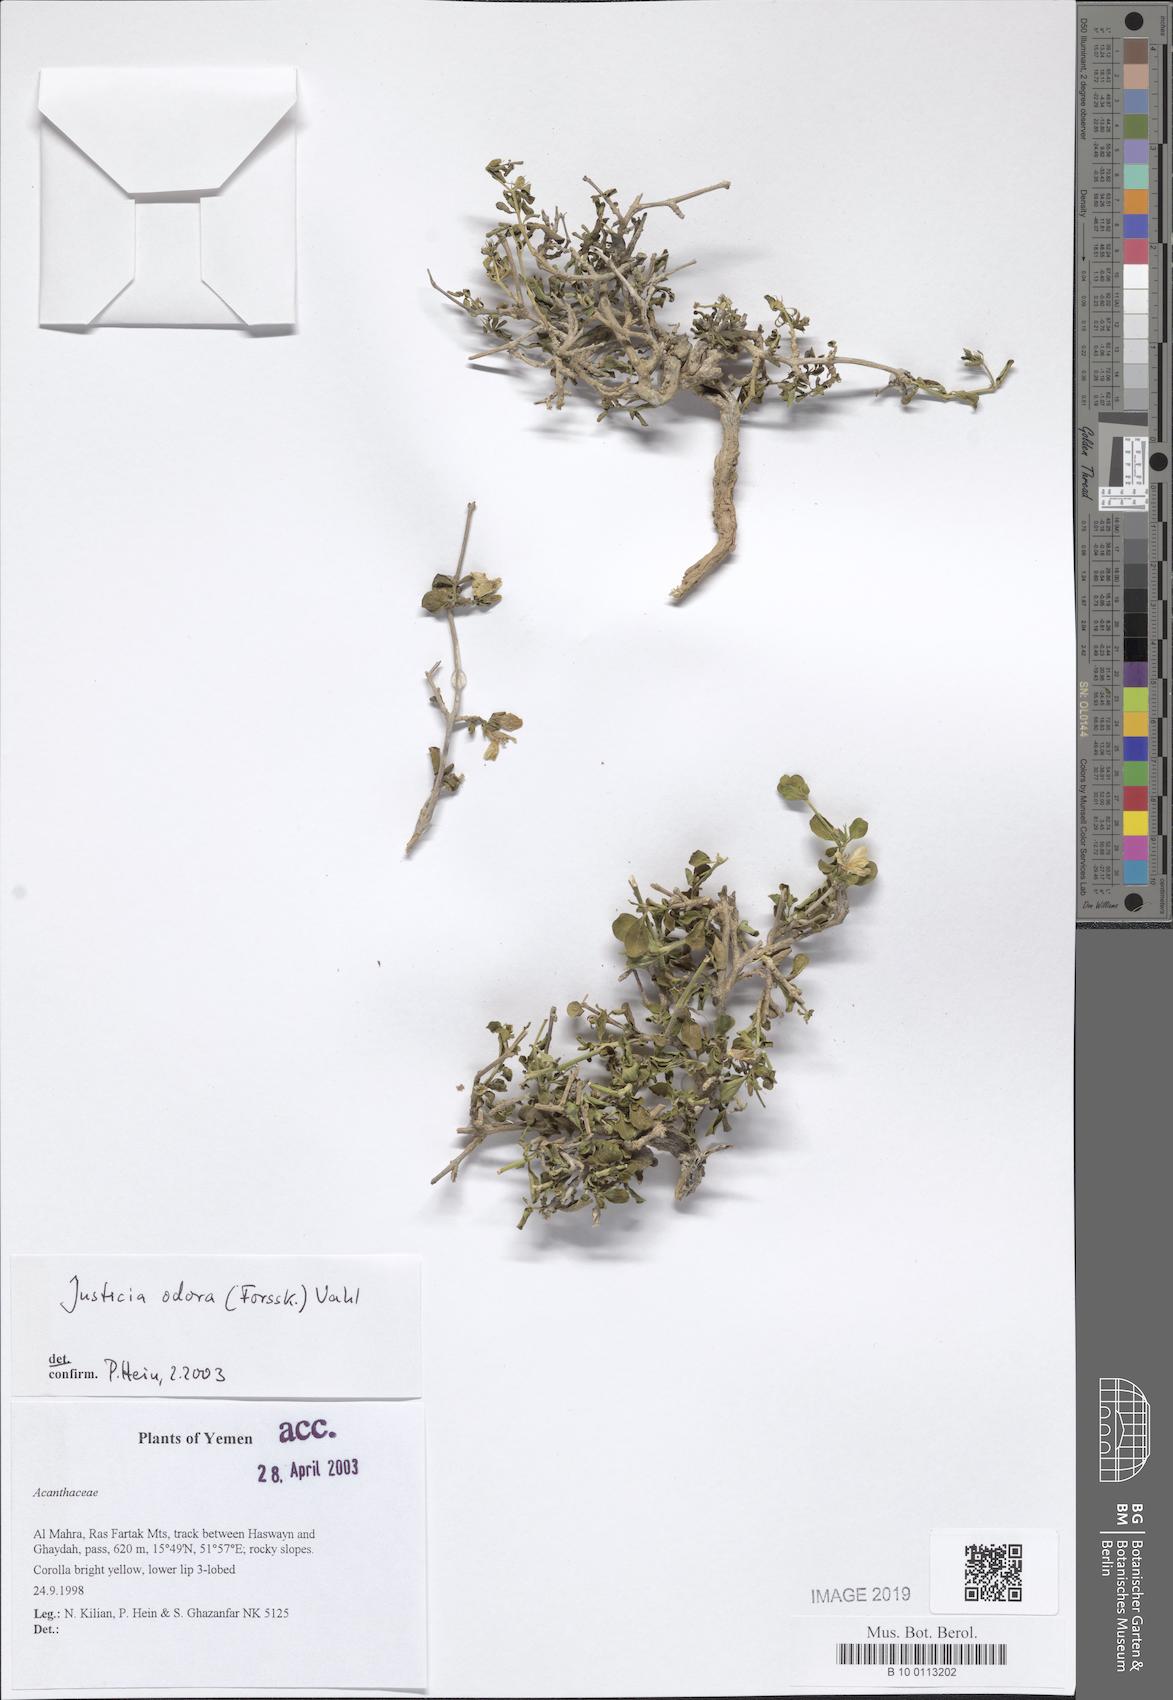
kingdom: Plantae
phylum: Tracheophyta
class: Magnoliopsida
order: Lamiales
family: Acanthaceae
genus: Justicia
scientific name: Justicia odora
